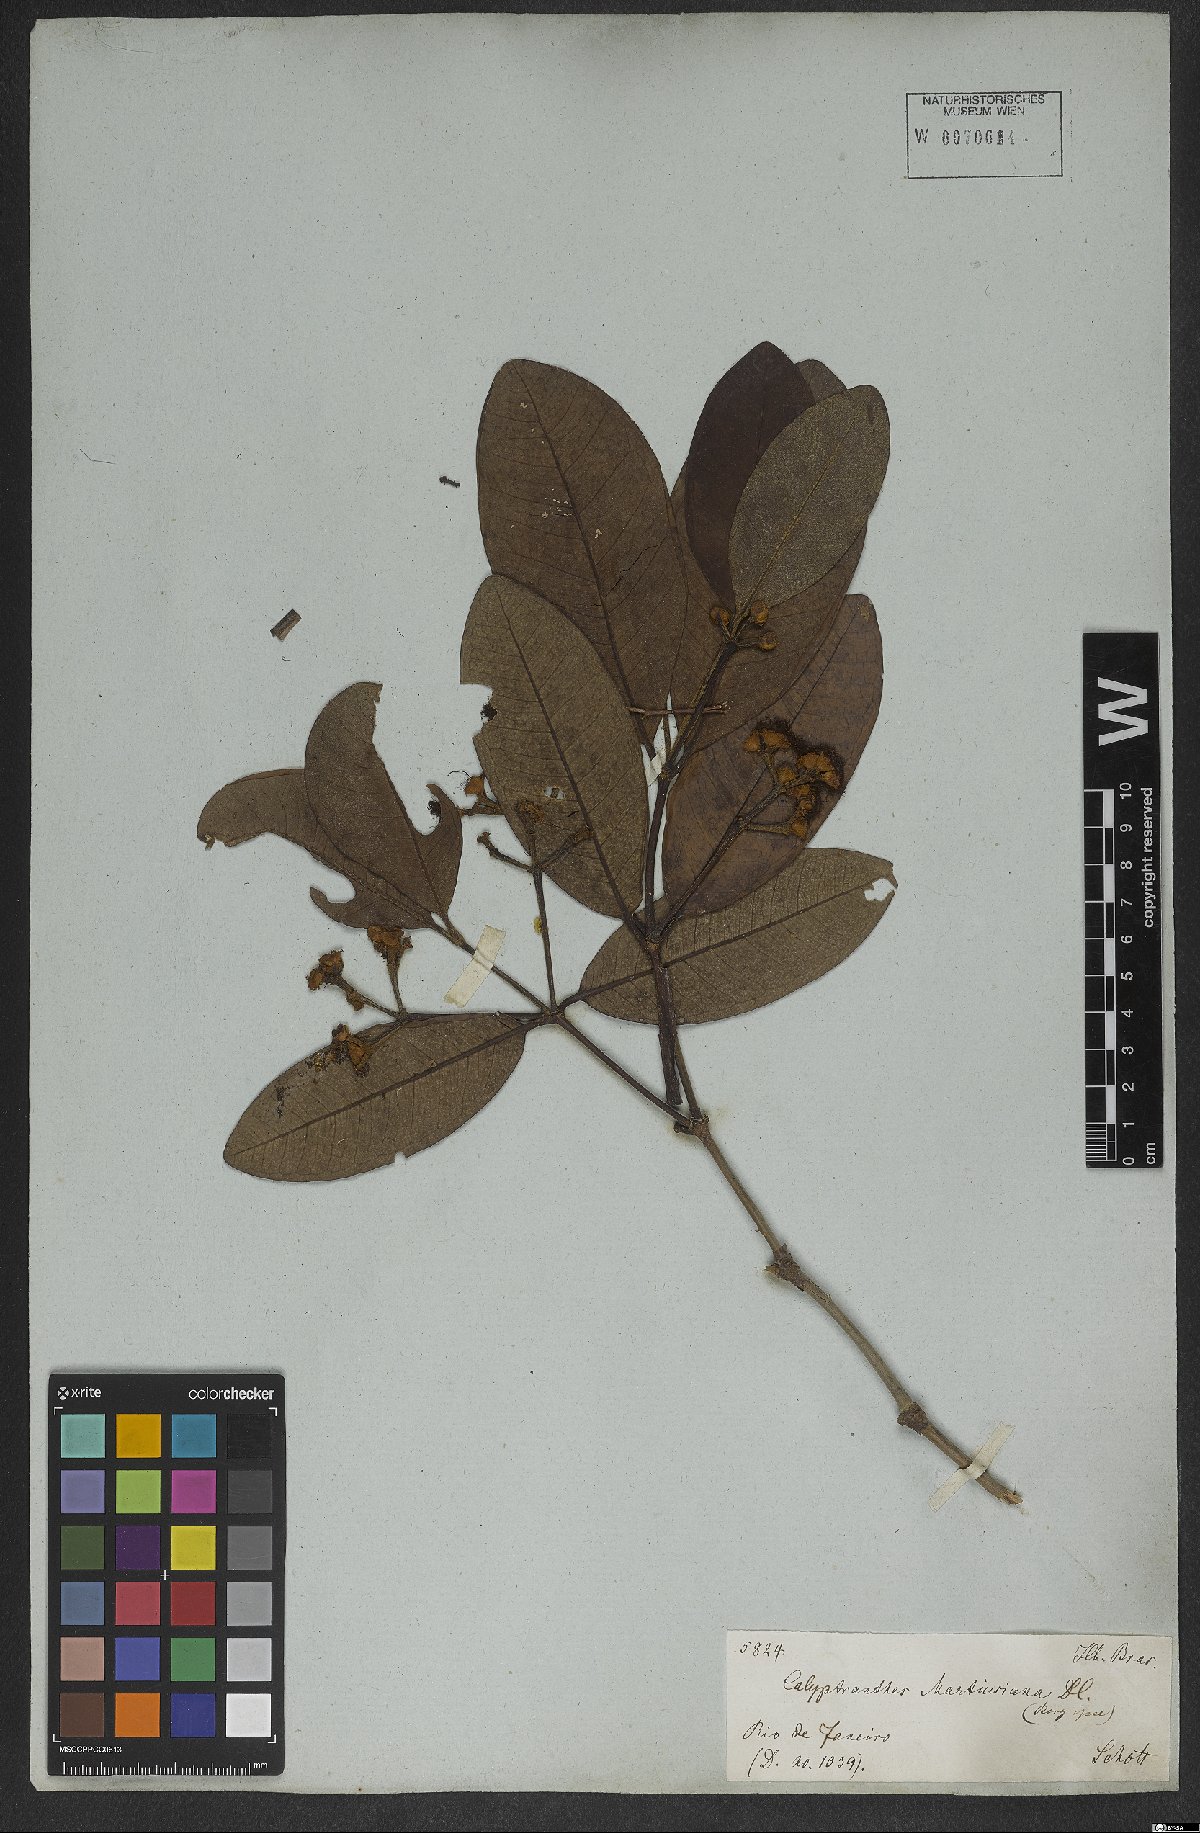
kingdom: Plantae
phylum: Tracheophyta
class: Magnoliopsida
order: Myrtales
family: Myrtaceae
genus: Myrcia
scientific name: Myrcia martiusiana
